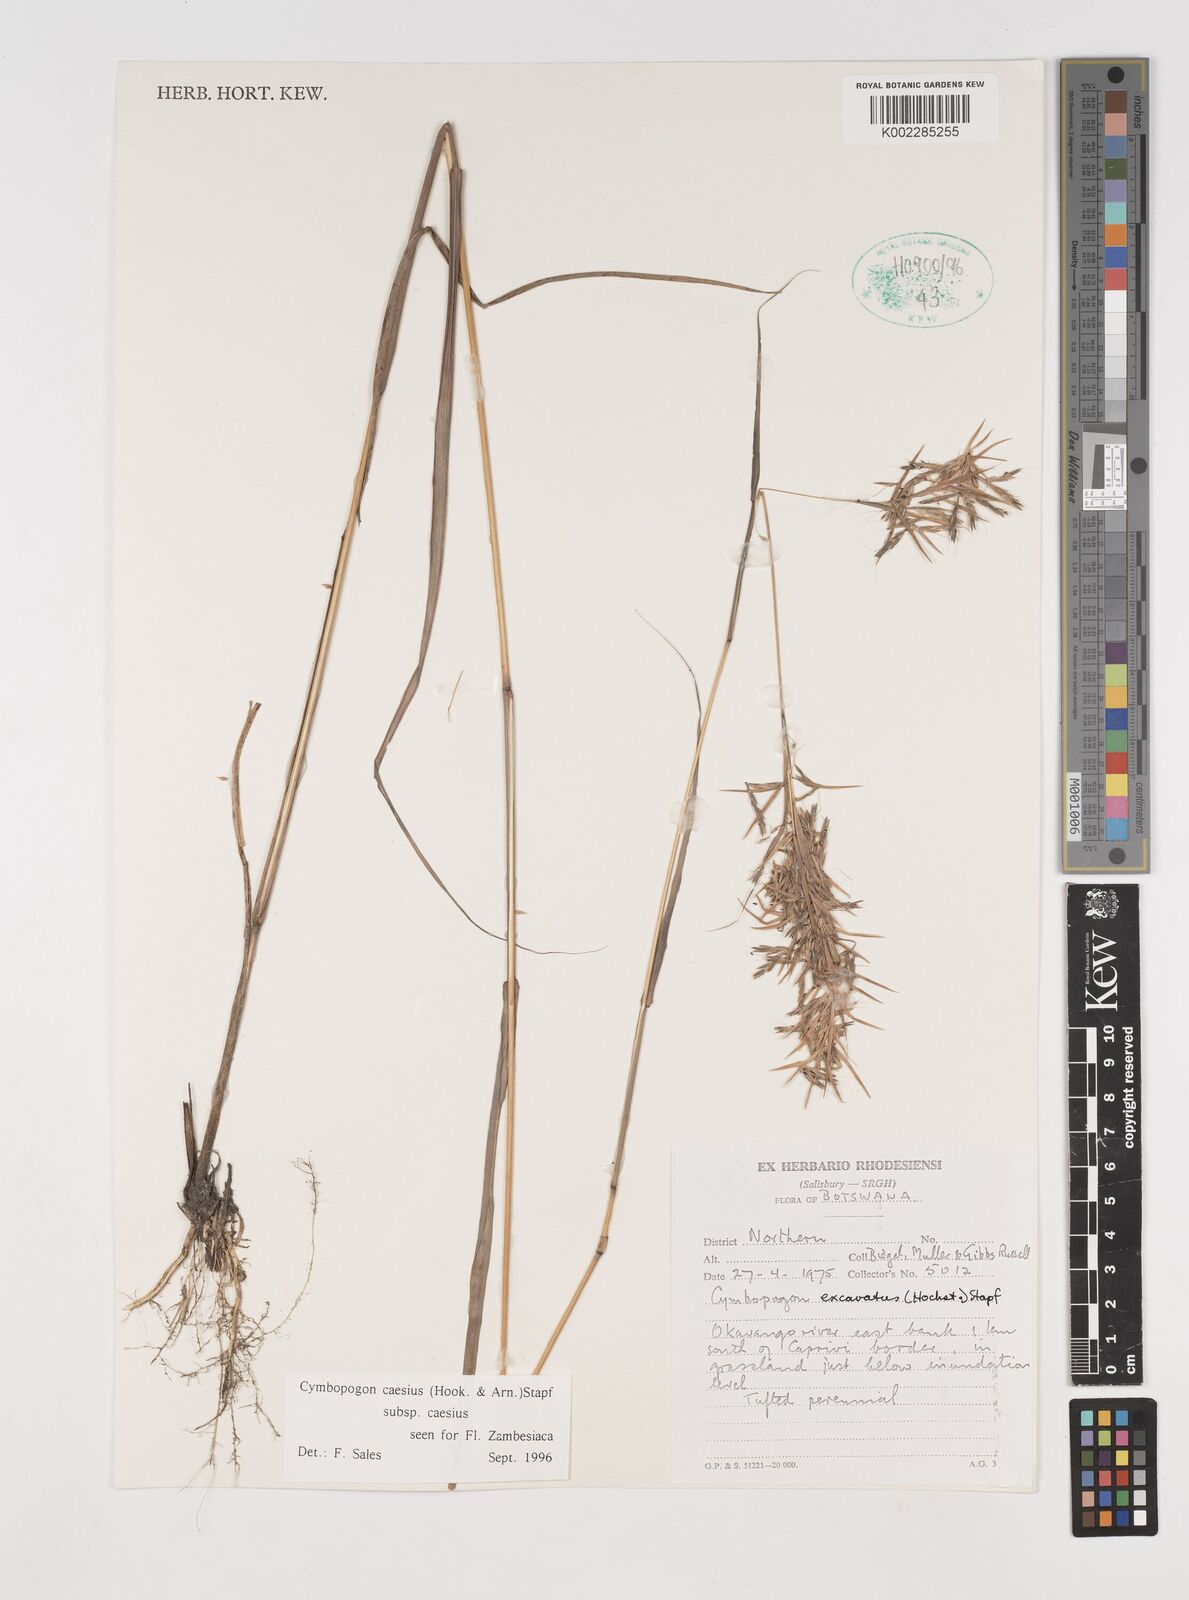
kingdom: Plantae
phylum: Tracheophyta
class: Liliopsida
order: Poales
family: Poaceae
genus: Cymbopogon
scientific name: Cymbopogon caesius
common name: Kachi grass
